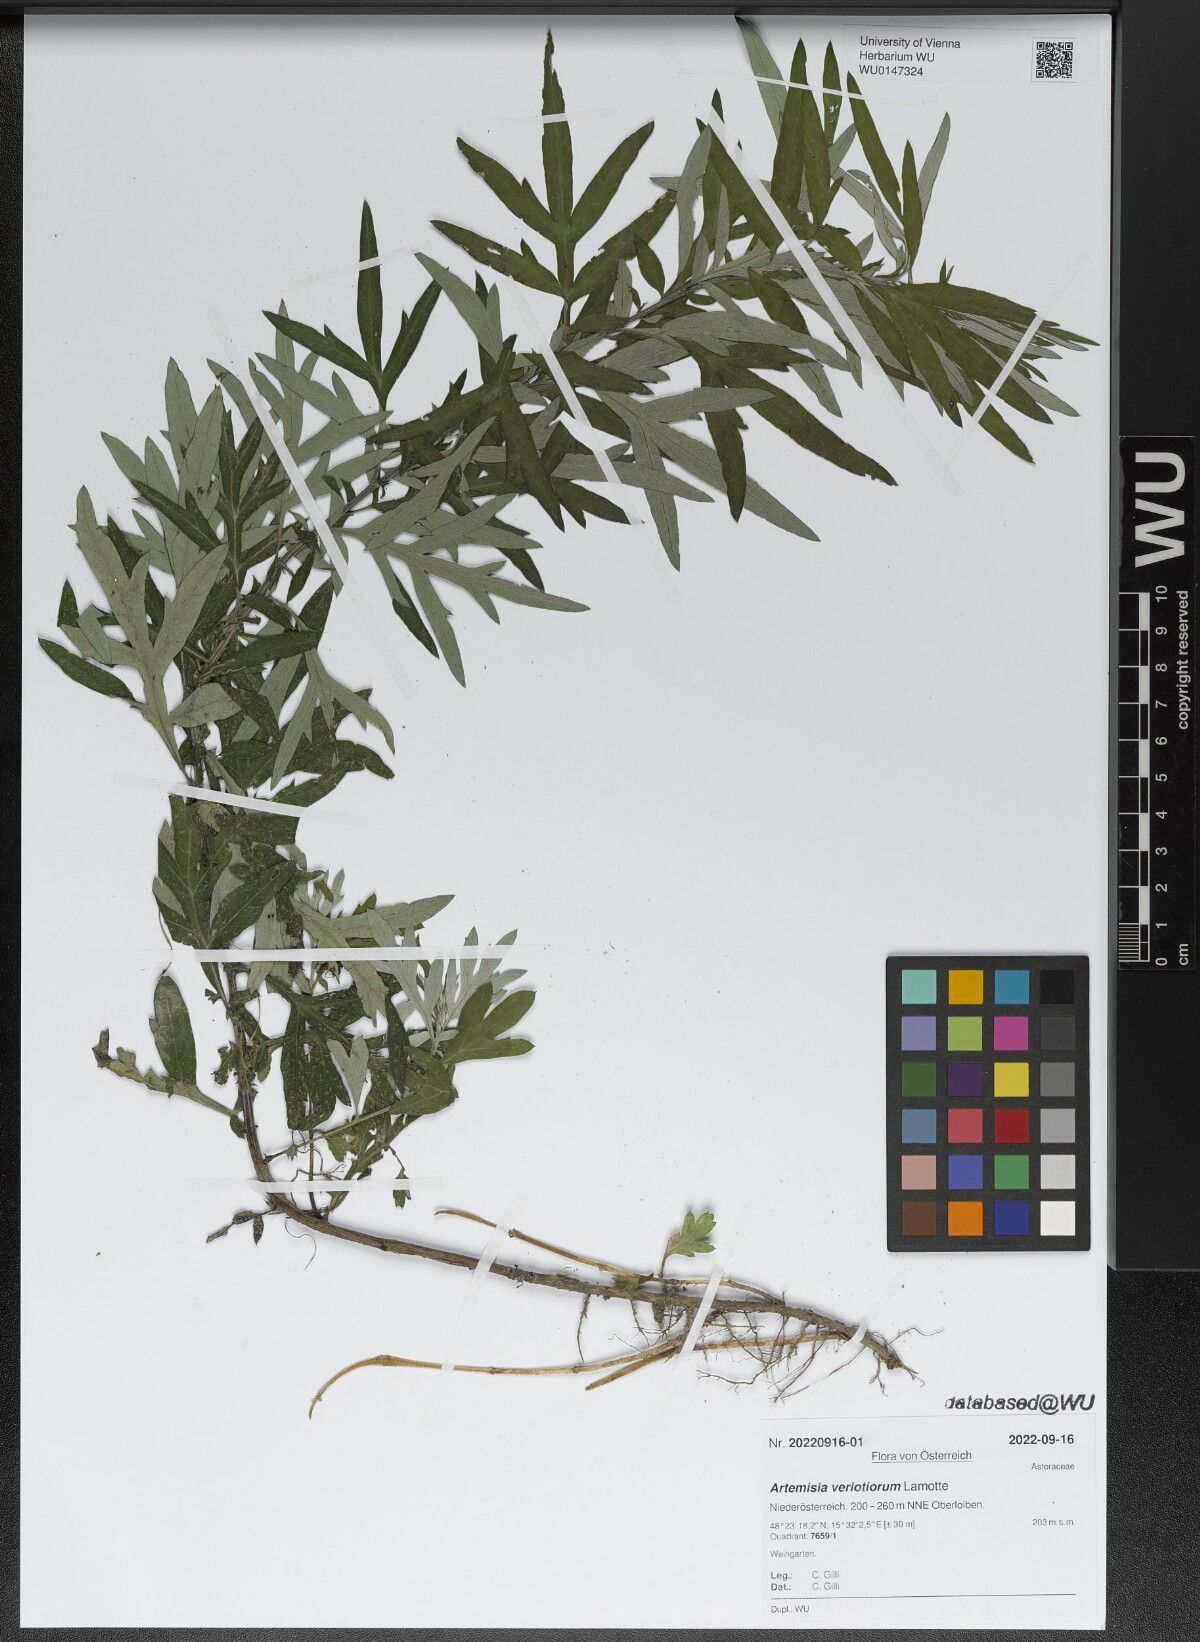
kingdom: Plantae
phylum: Tracheophyta
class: Magnoliopsida
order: Asterales
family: Asteraceae
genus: Artemisia
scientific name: Artemisia verlotiorum
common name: Chinese mugwort
